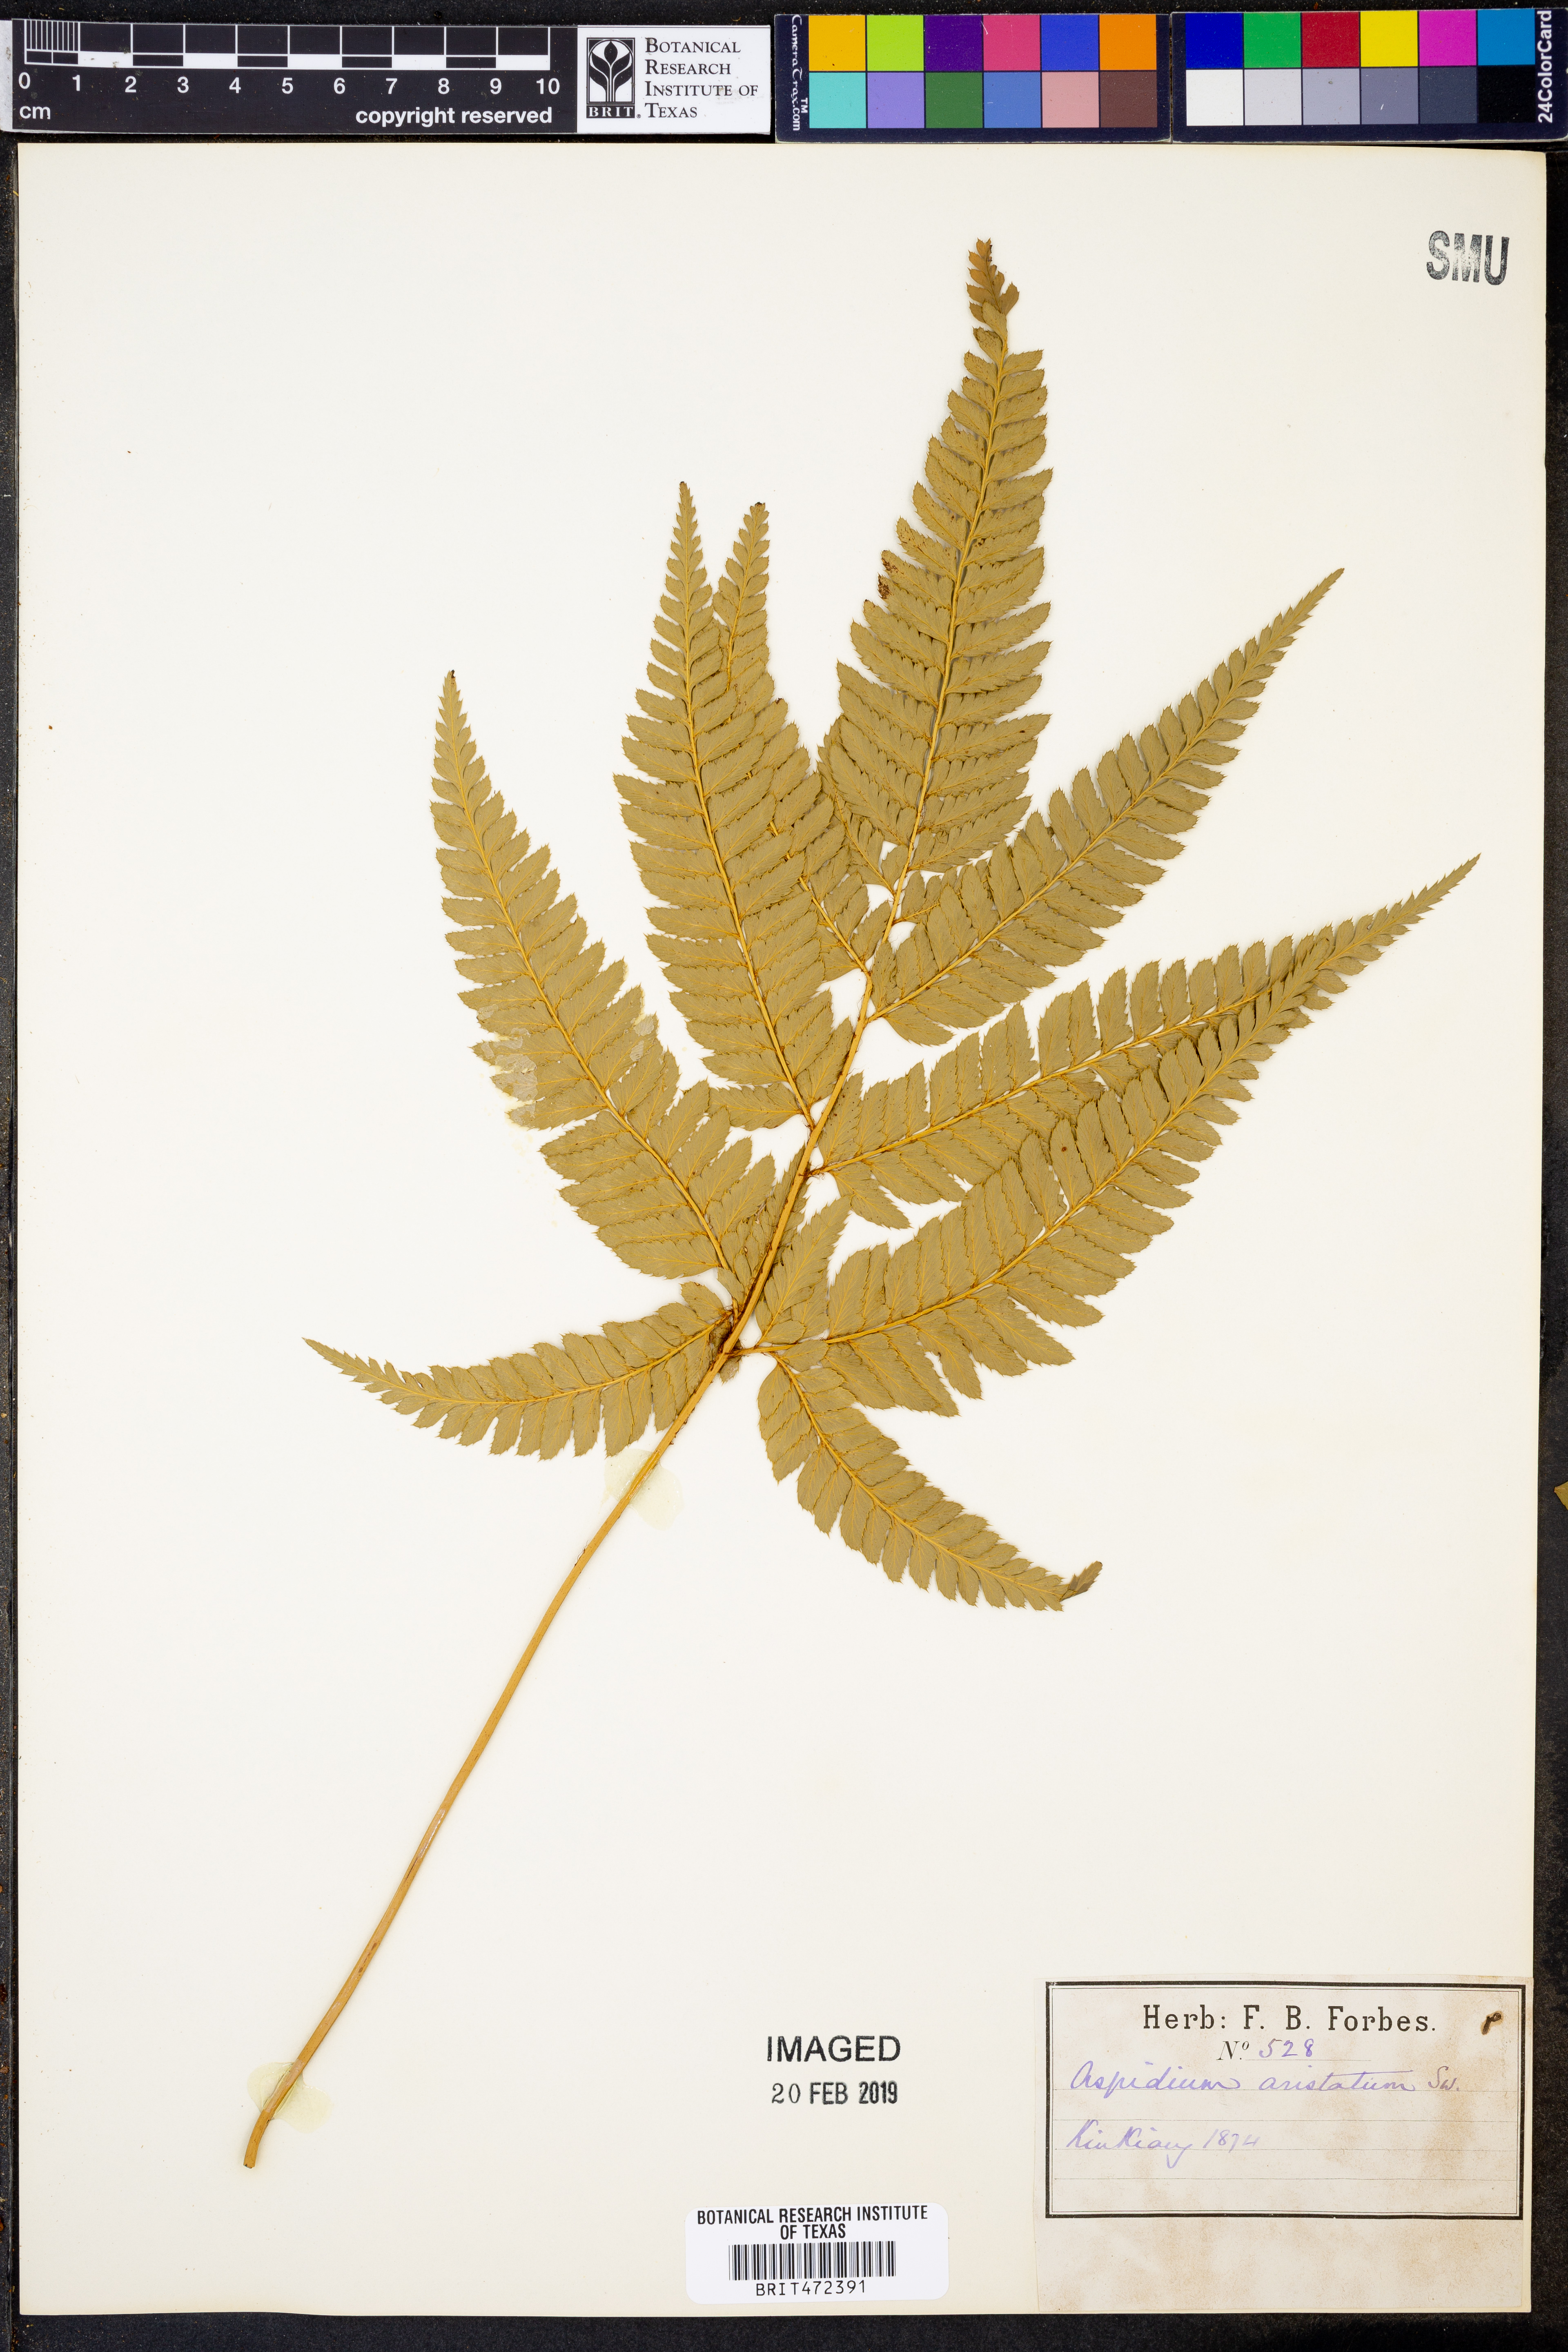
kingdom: Plantae
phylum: Tracheophyta
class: Polypodiopsida
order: Polypodiales
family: Dryopteridaceae
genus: Arachniodes
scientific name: Arachniodes aristata
